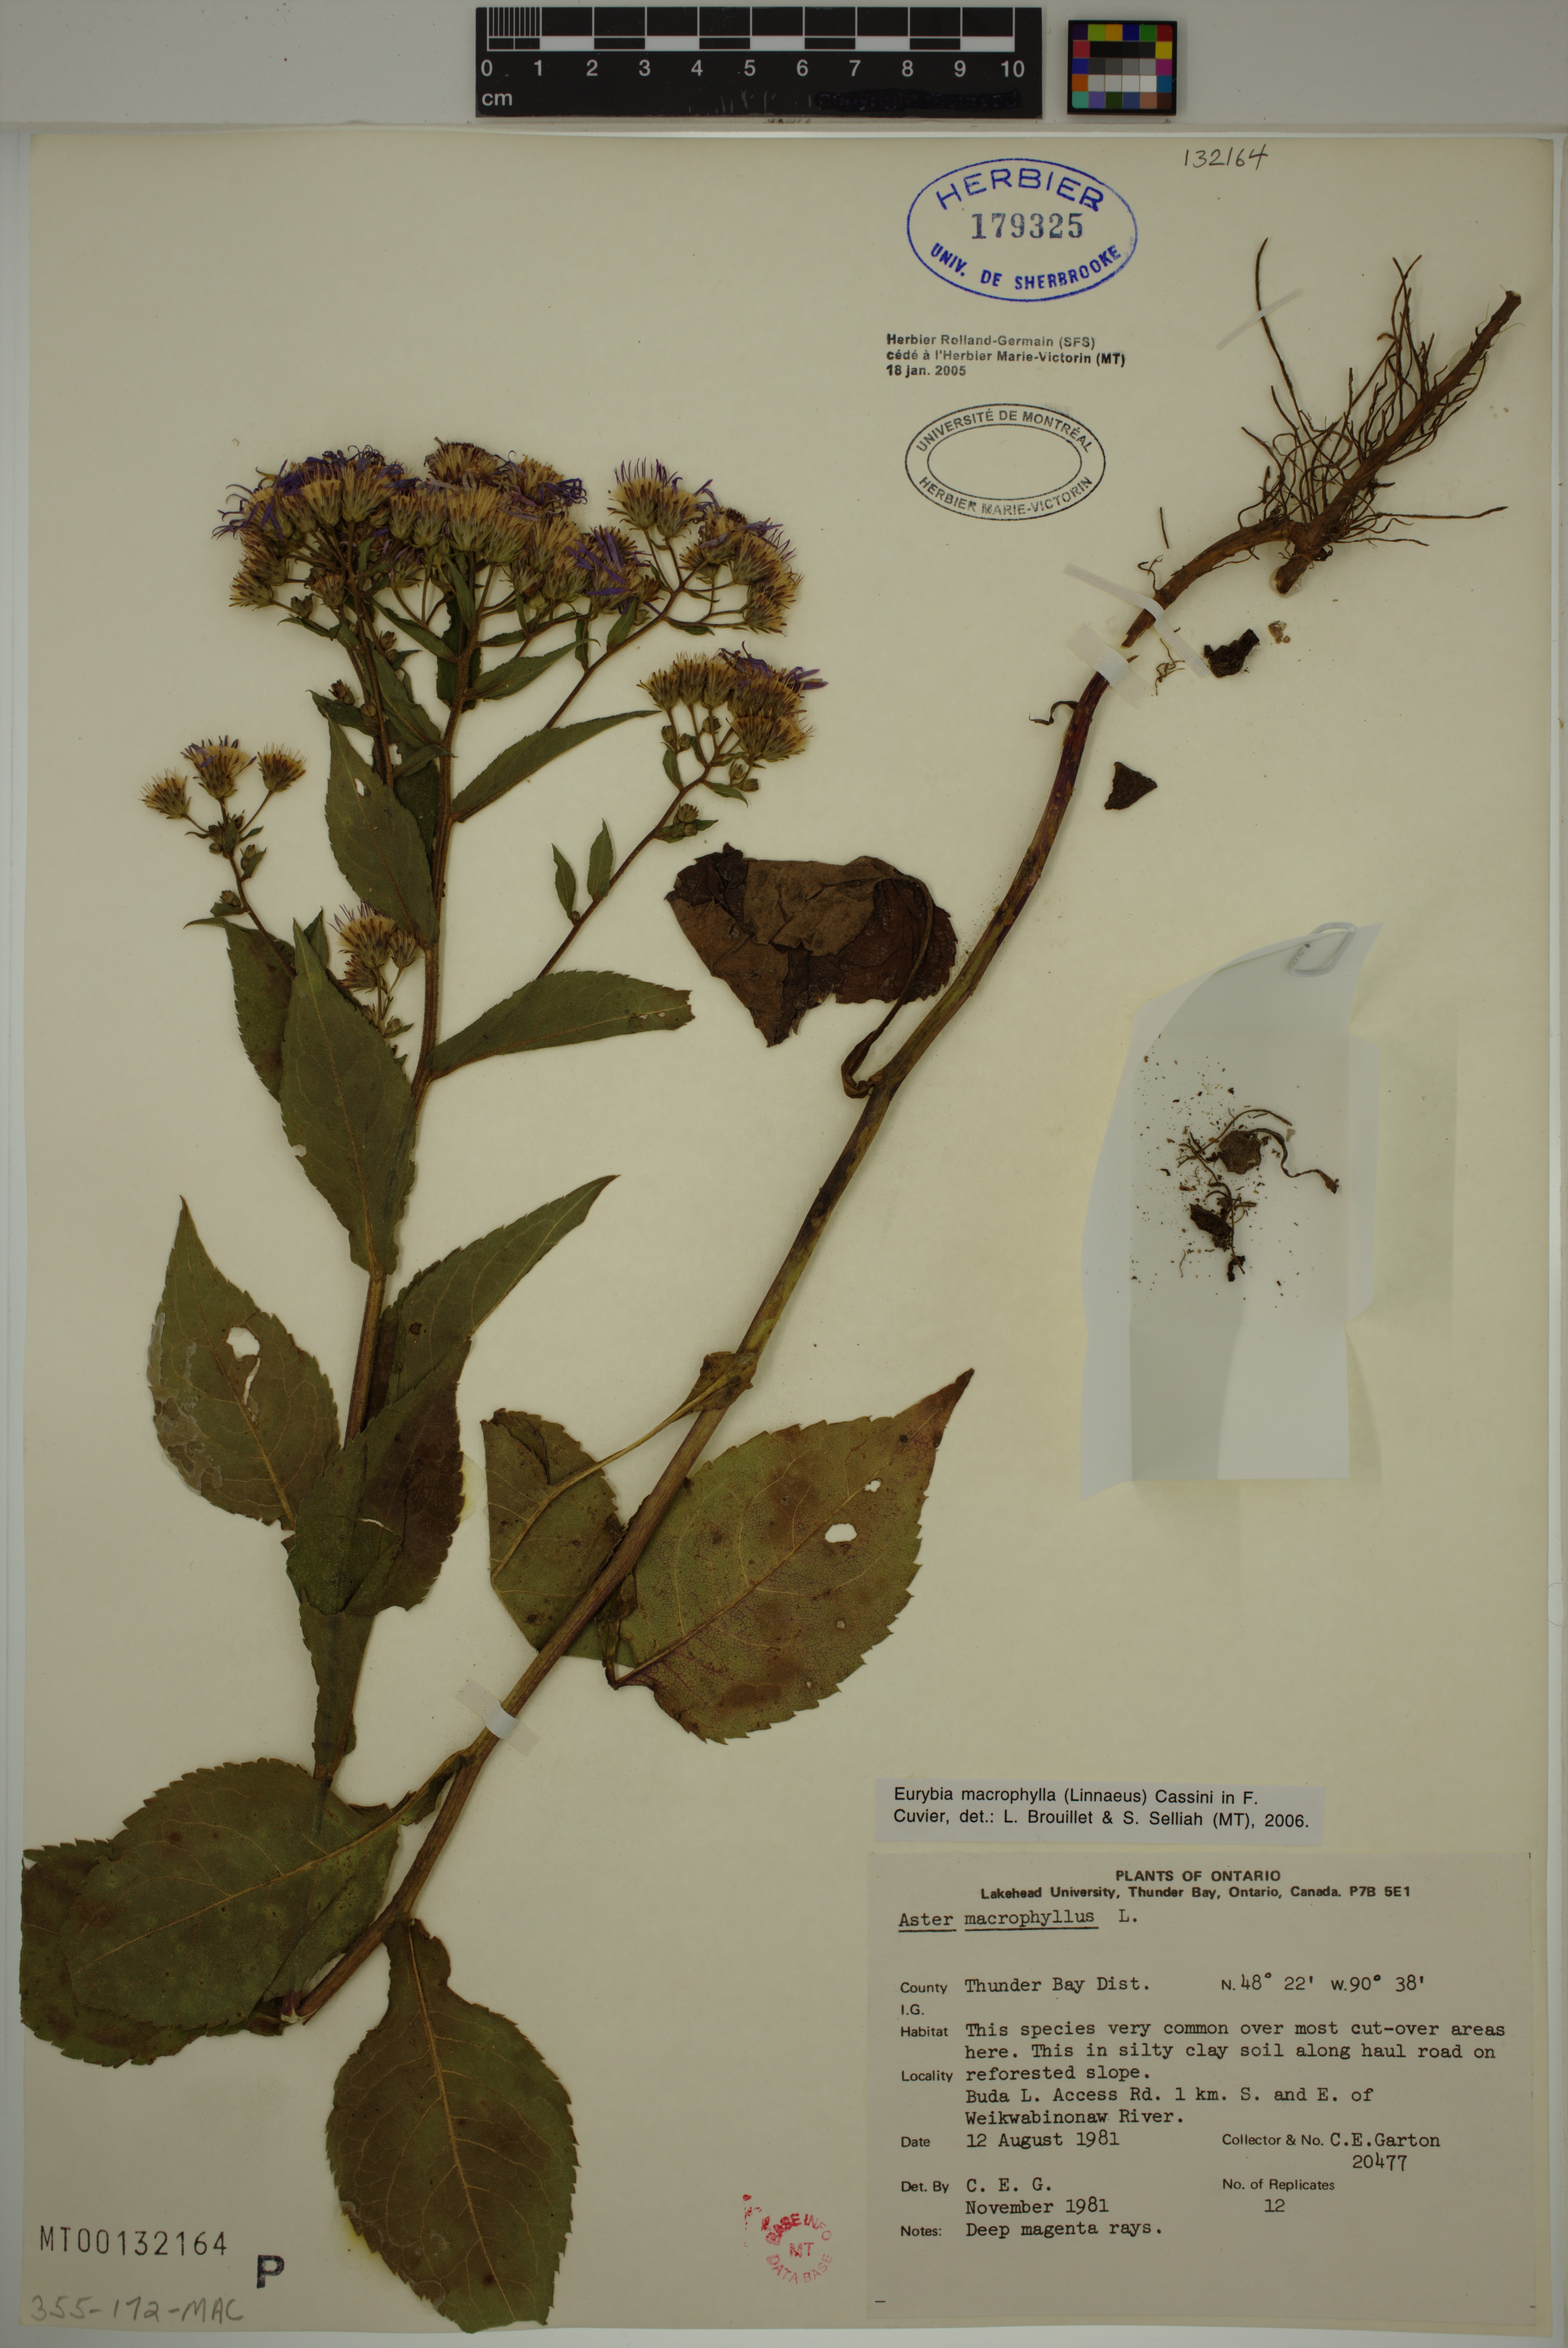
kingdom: Plantae
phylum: Tracheophyta
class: Magnoliopsida
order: Asterales
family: Asteraceae
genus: Eurybia
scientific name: Eurybia macrophylla
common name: Big-leaved aster
